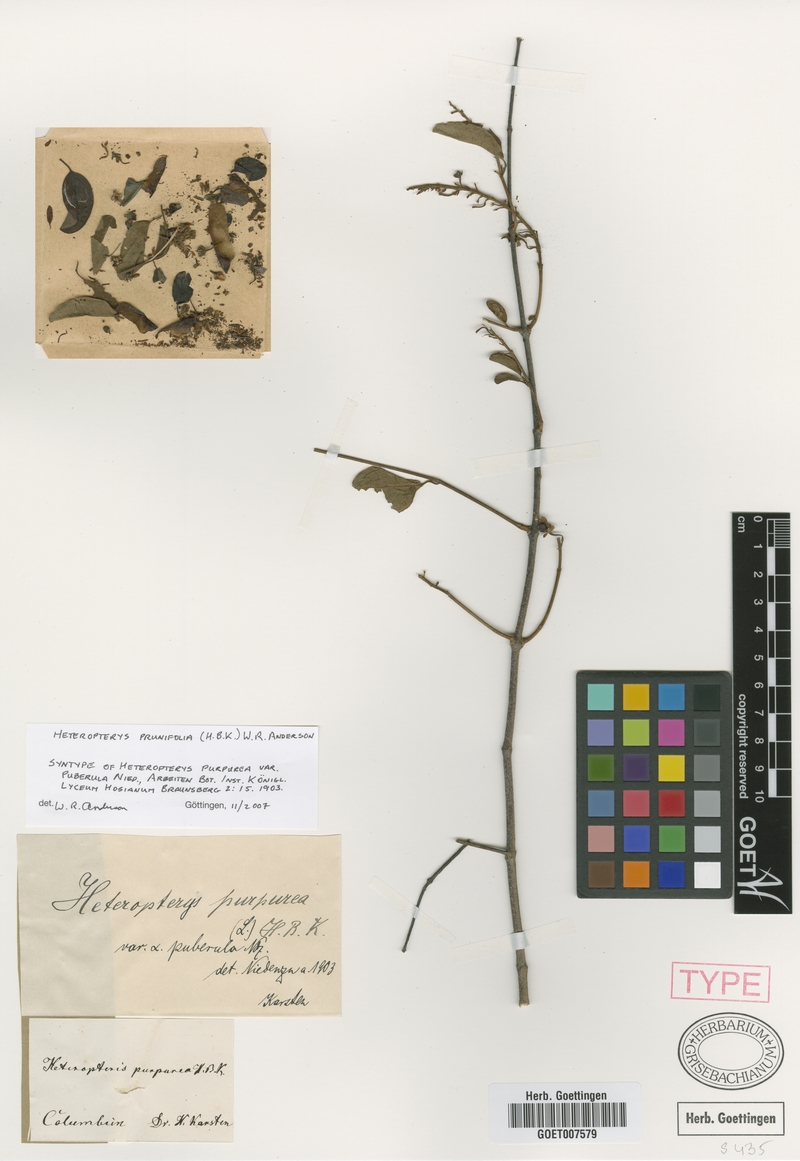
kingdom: Plantae
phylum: Tracheophyta
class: Magnoliopsida
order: Malpighiales
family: Malpighiaceae
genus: Heteropterys
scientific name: Heteropterys prunifolia
